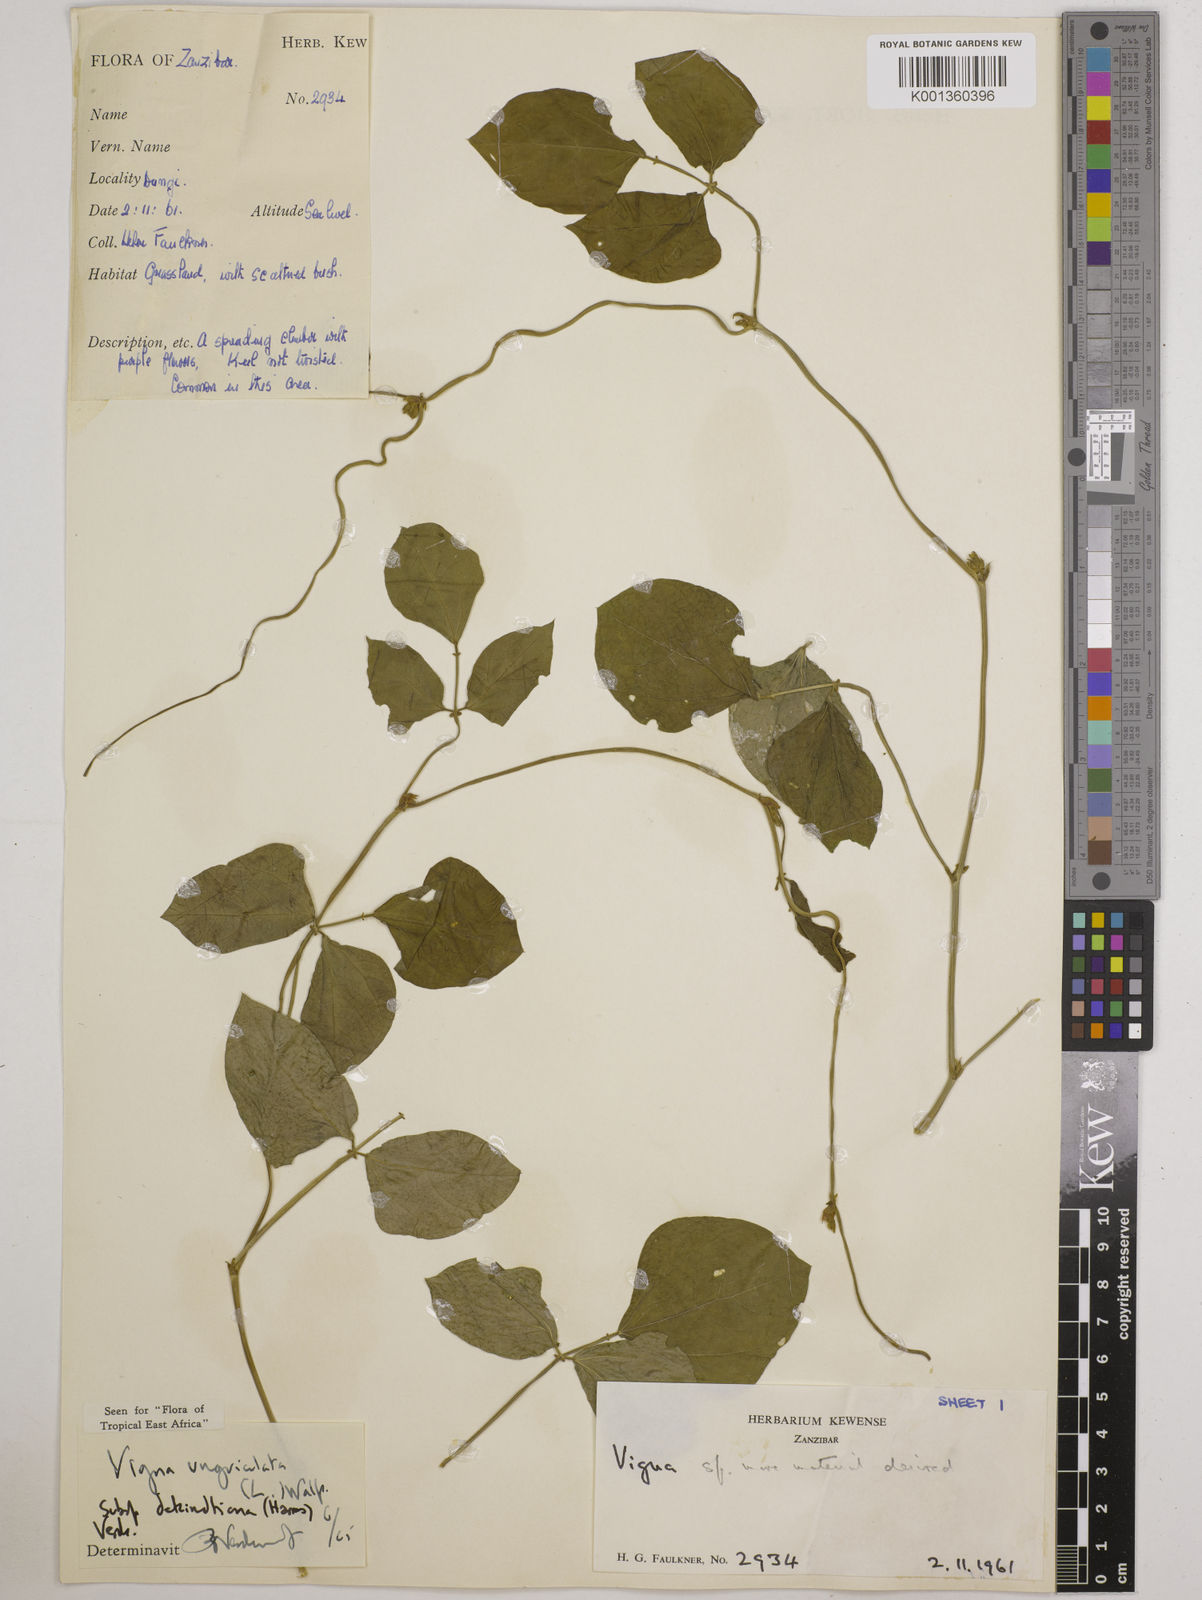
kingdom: Plantae
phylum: Tracheophyta
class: Magnoliopsida
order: Fabales
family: Fabaceae
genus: Vigna
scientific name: Vigna
